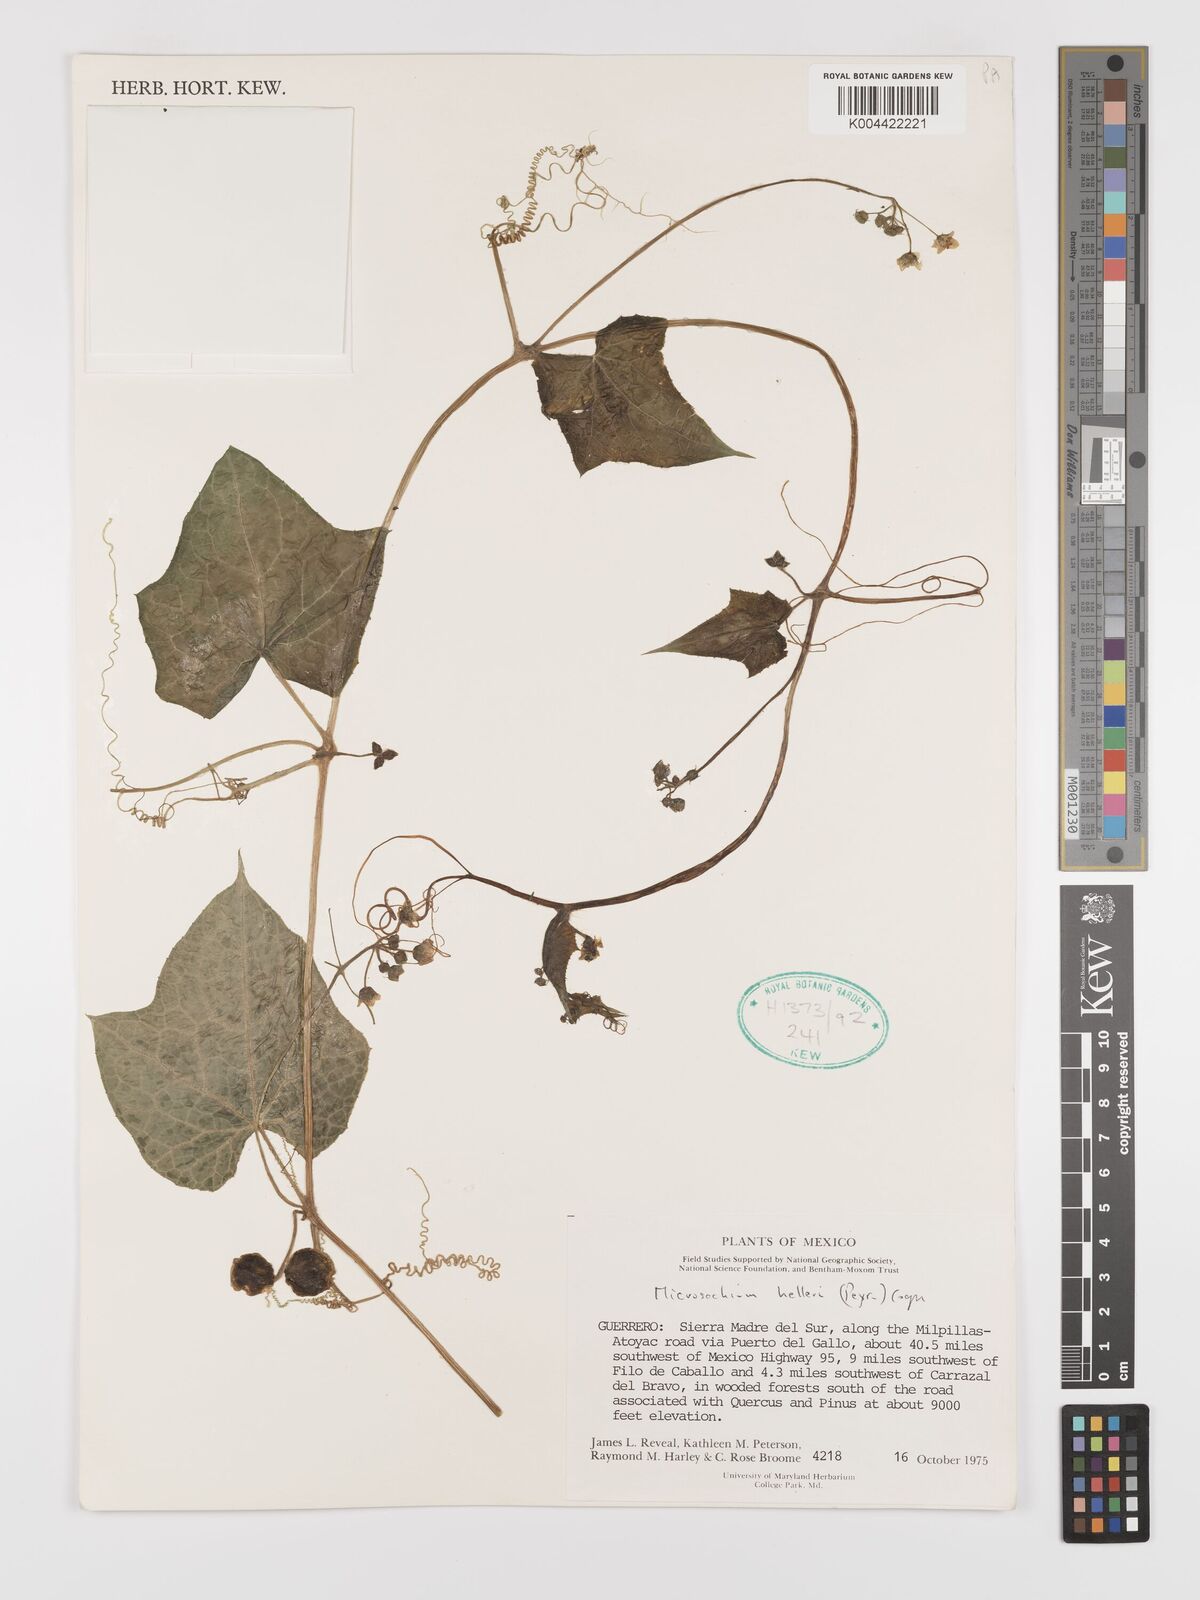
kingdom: Plantae
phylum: Tracheophyta
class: Magnoliopsida
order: Cucurbitales
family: Cucurbitaceae
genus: Microsechium
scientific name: Microsechium palmatum
